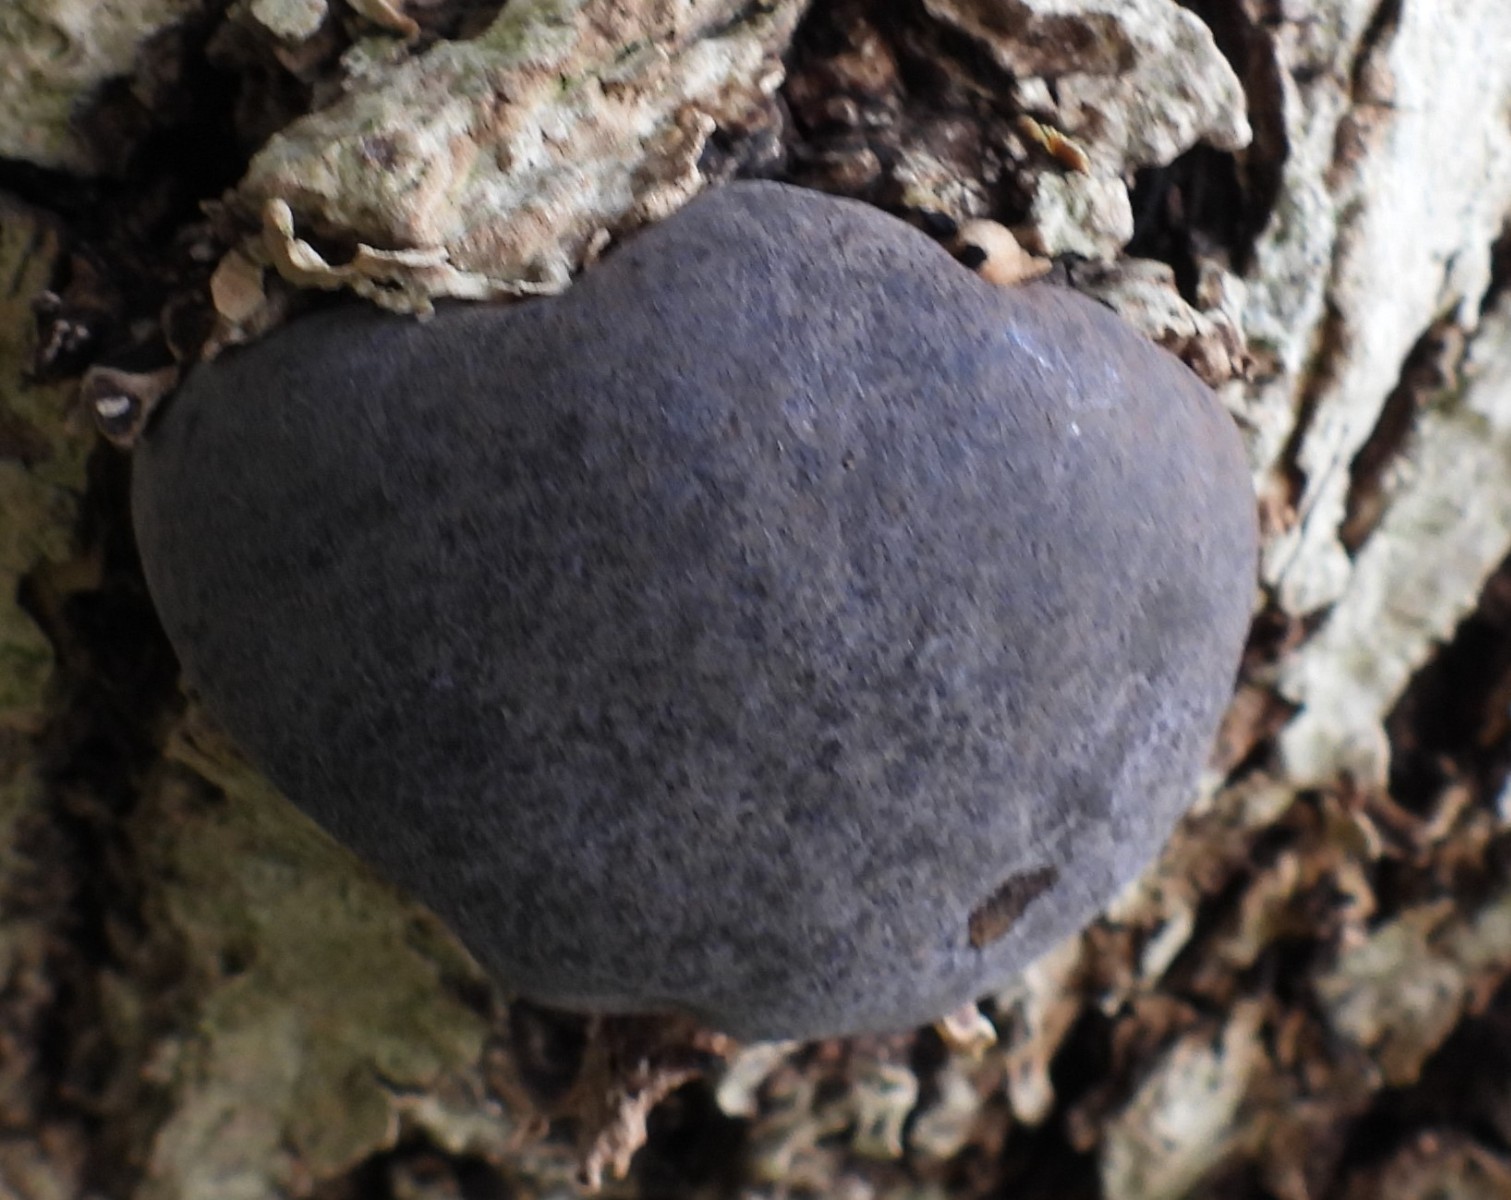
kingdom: Fungi
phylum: Ascomycota
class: Sordariomycetes
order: Xylariales
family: Hypoxylaceae
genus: Daldinia
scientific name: Daldinia concentrica
